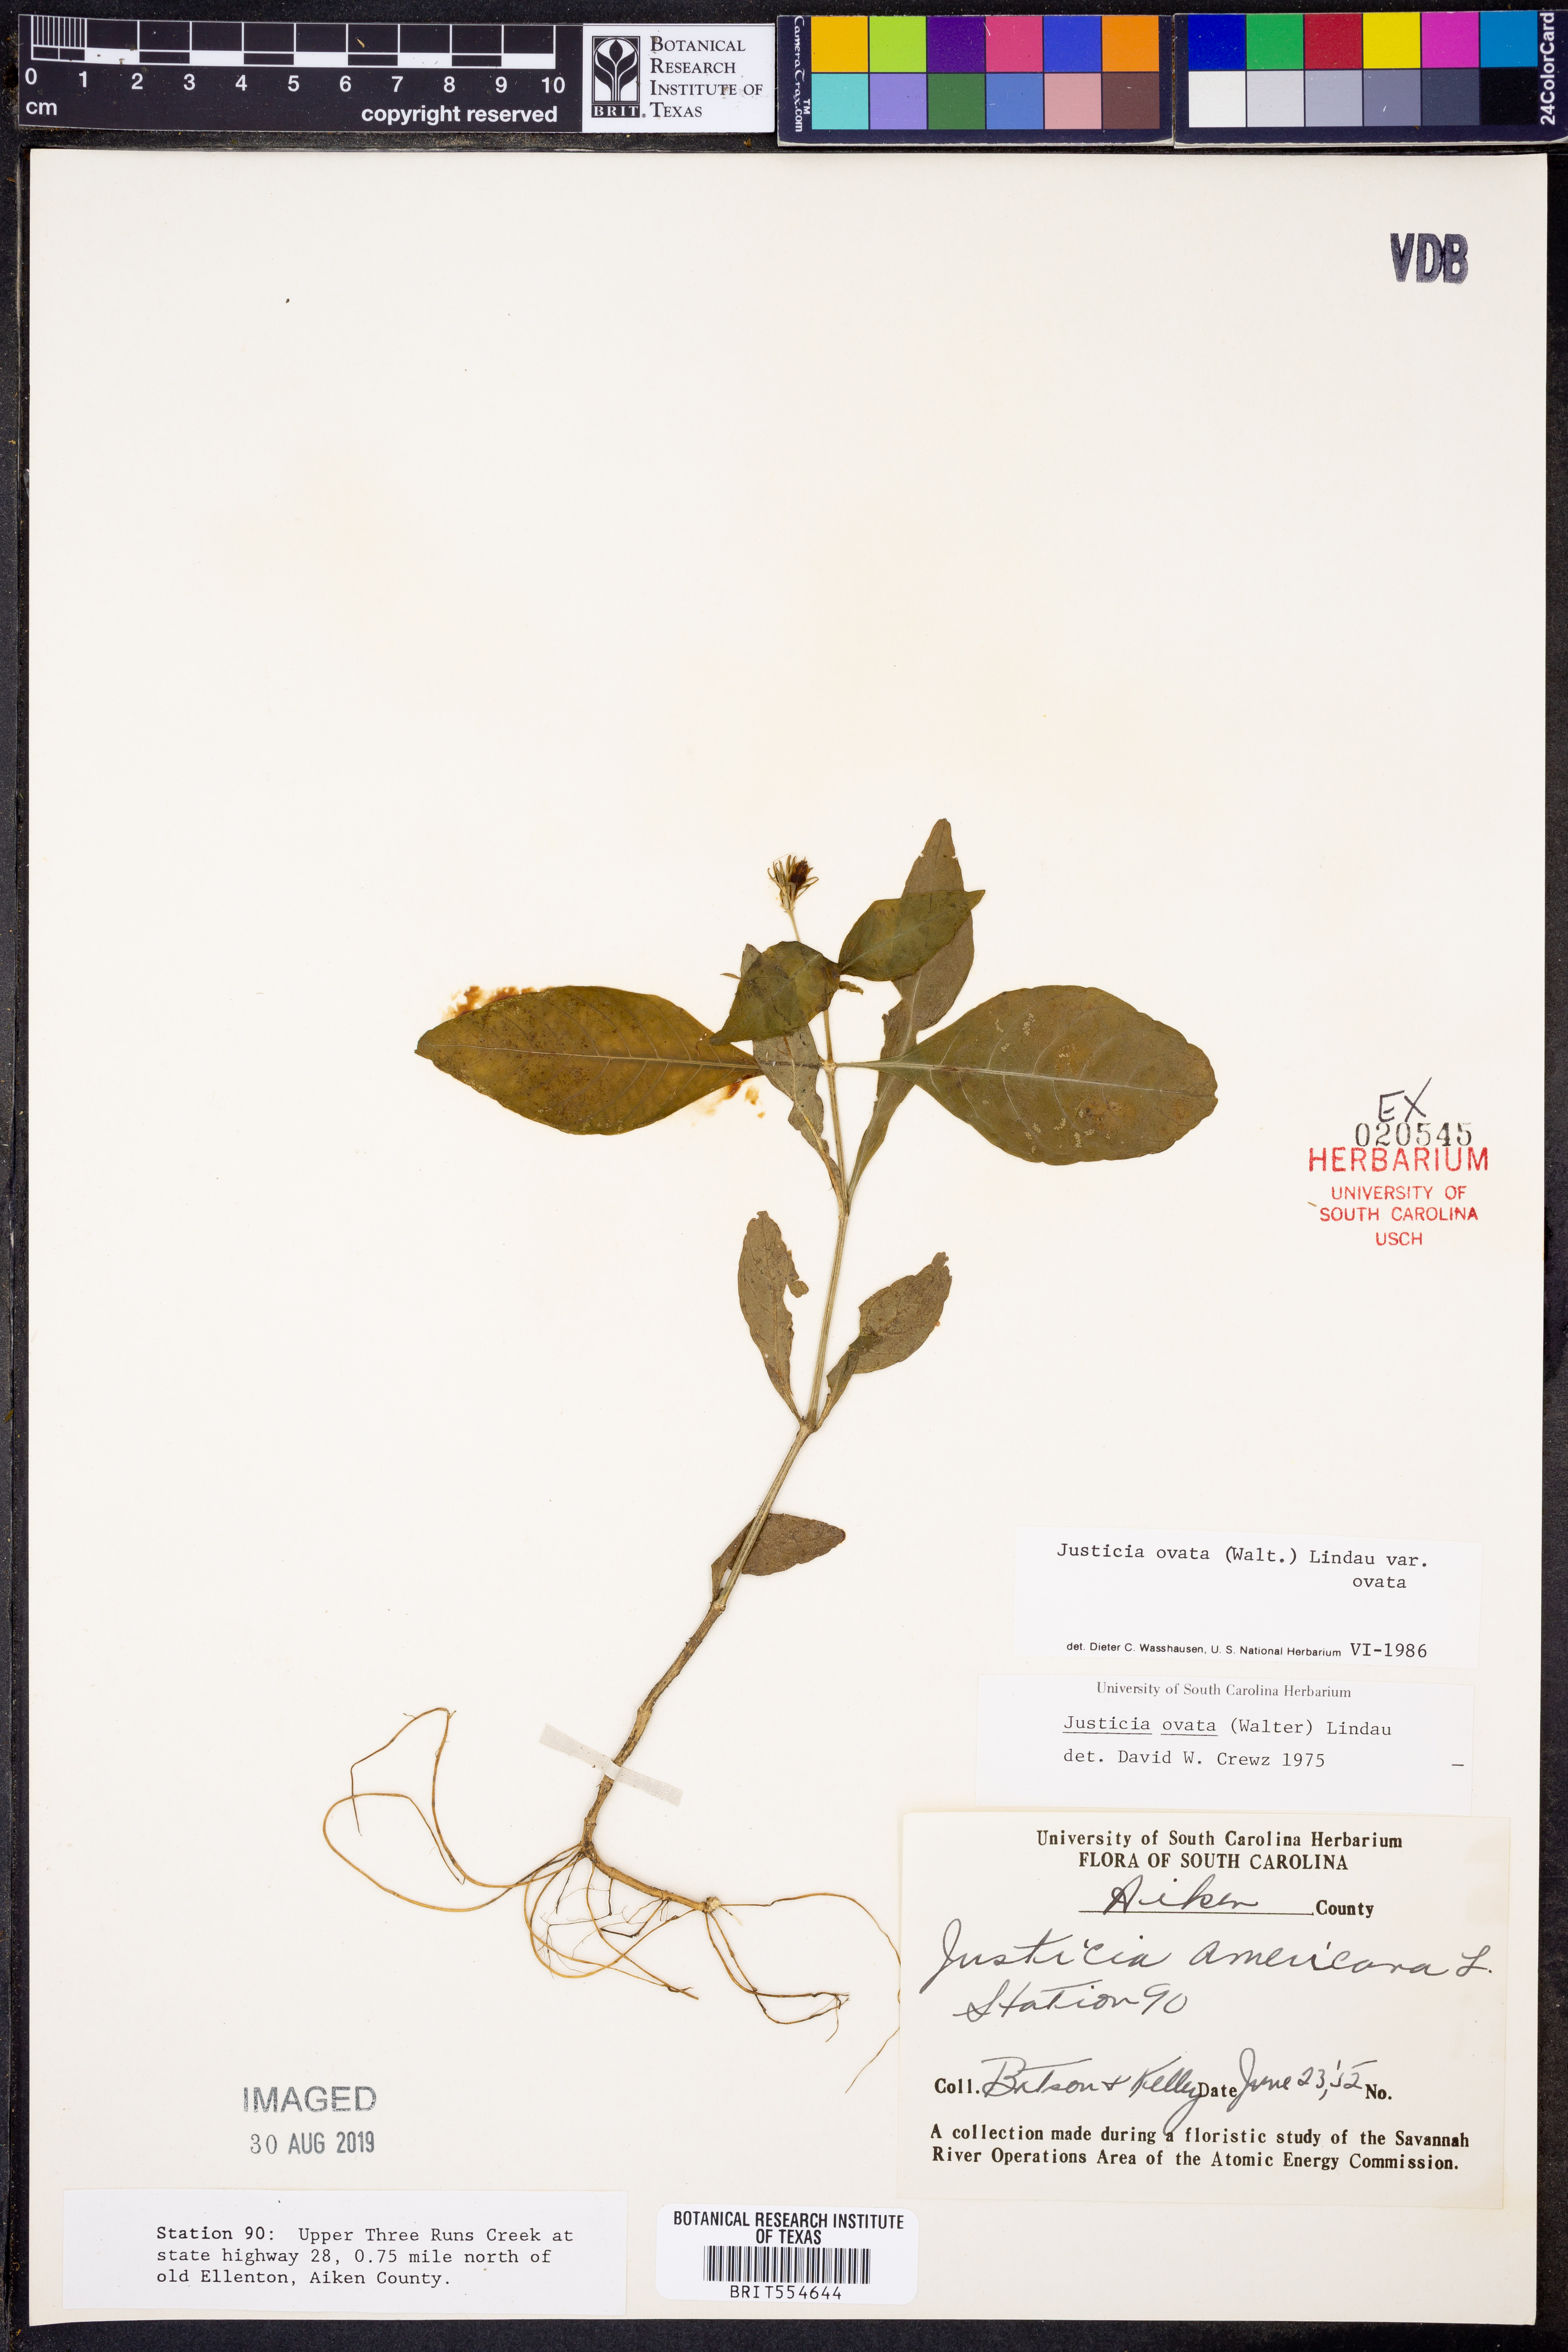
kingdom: Plantae
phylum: Tracheophyta
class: Magnoliopsida
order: Lamiales
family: Acanthaceae
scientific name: Acanthaceae
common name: Acanthaceae
